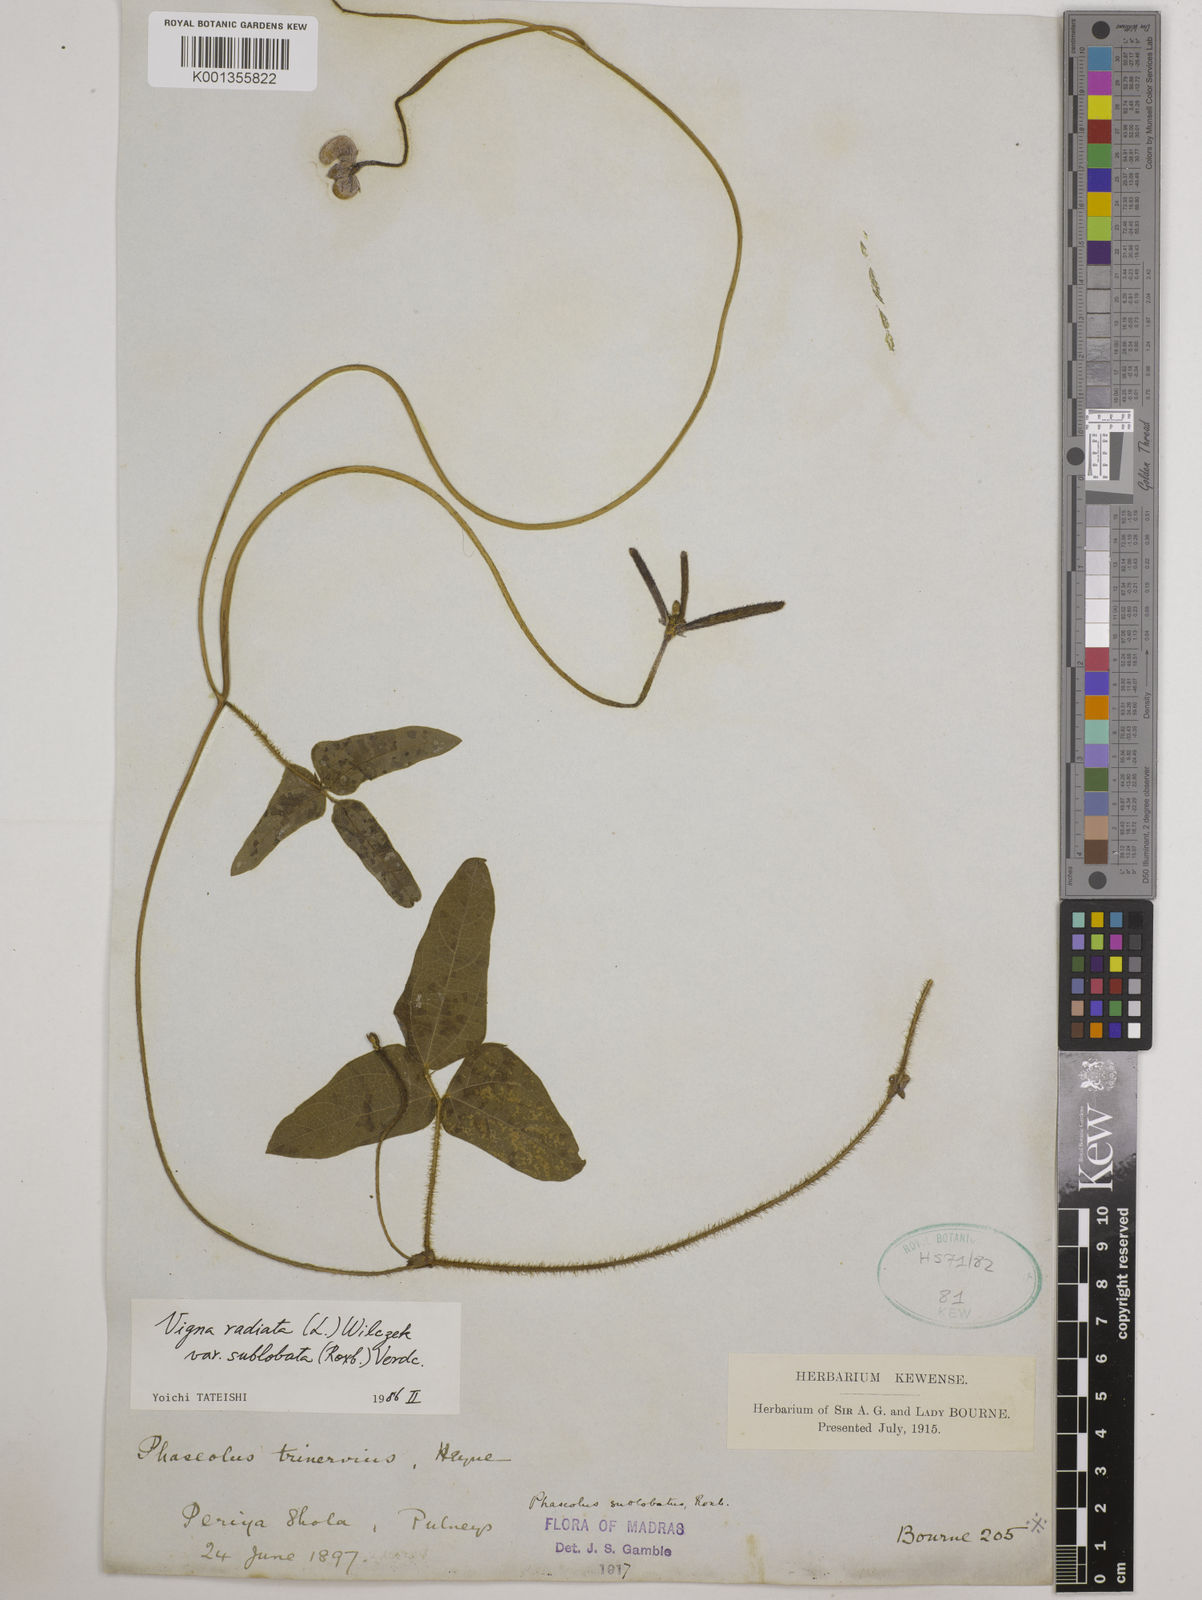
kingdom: Plantae
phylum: Tracheophyta
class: Magnoliopsida
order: Fabales
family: Fabaceae
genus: Vigna
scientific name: Vigna radiata
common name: Mung-bean
